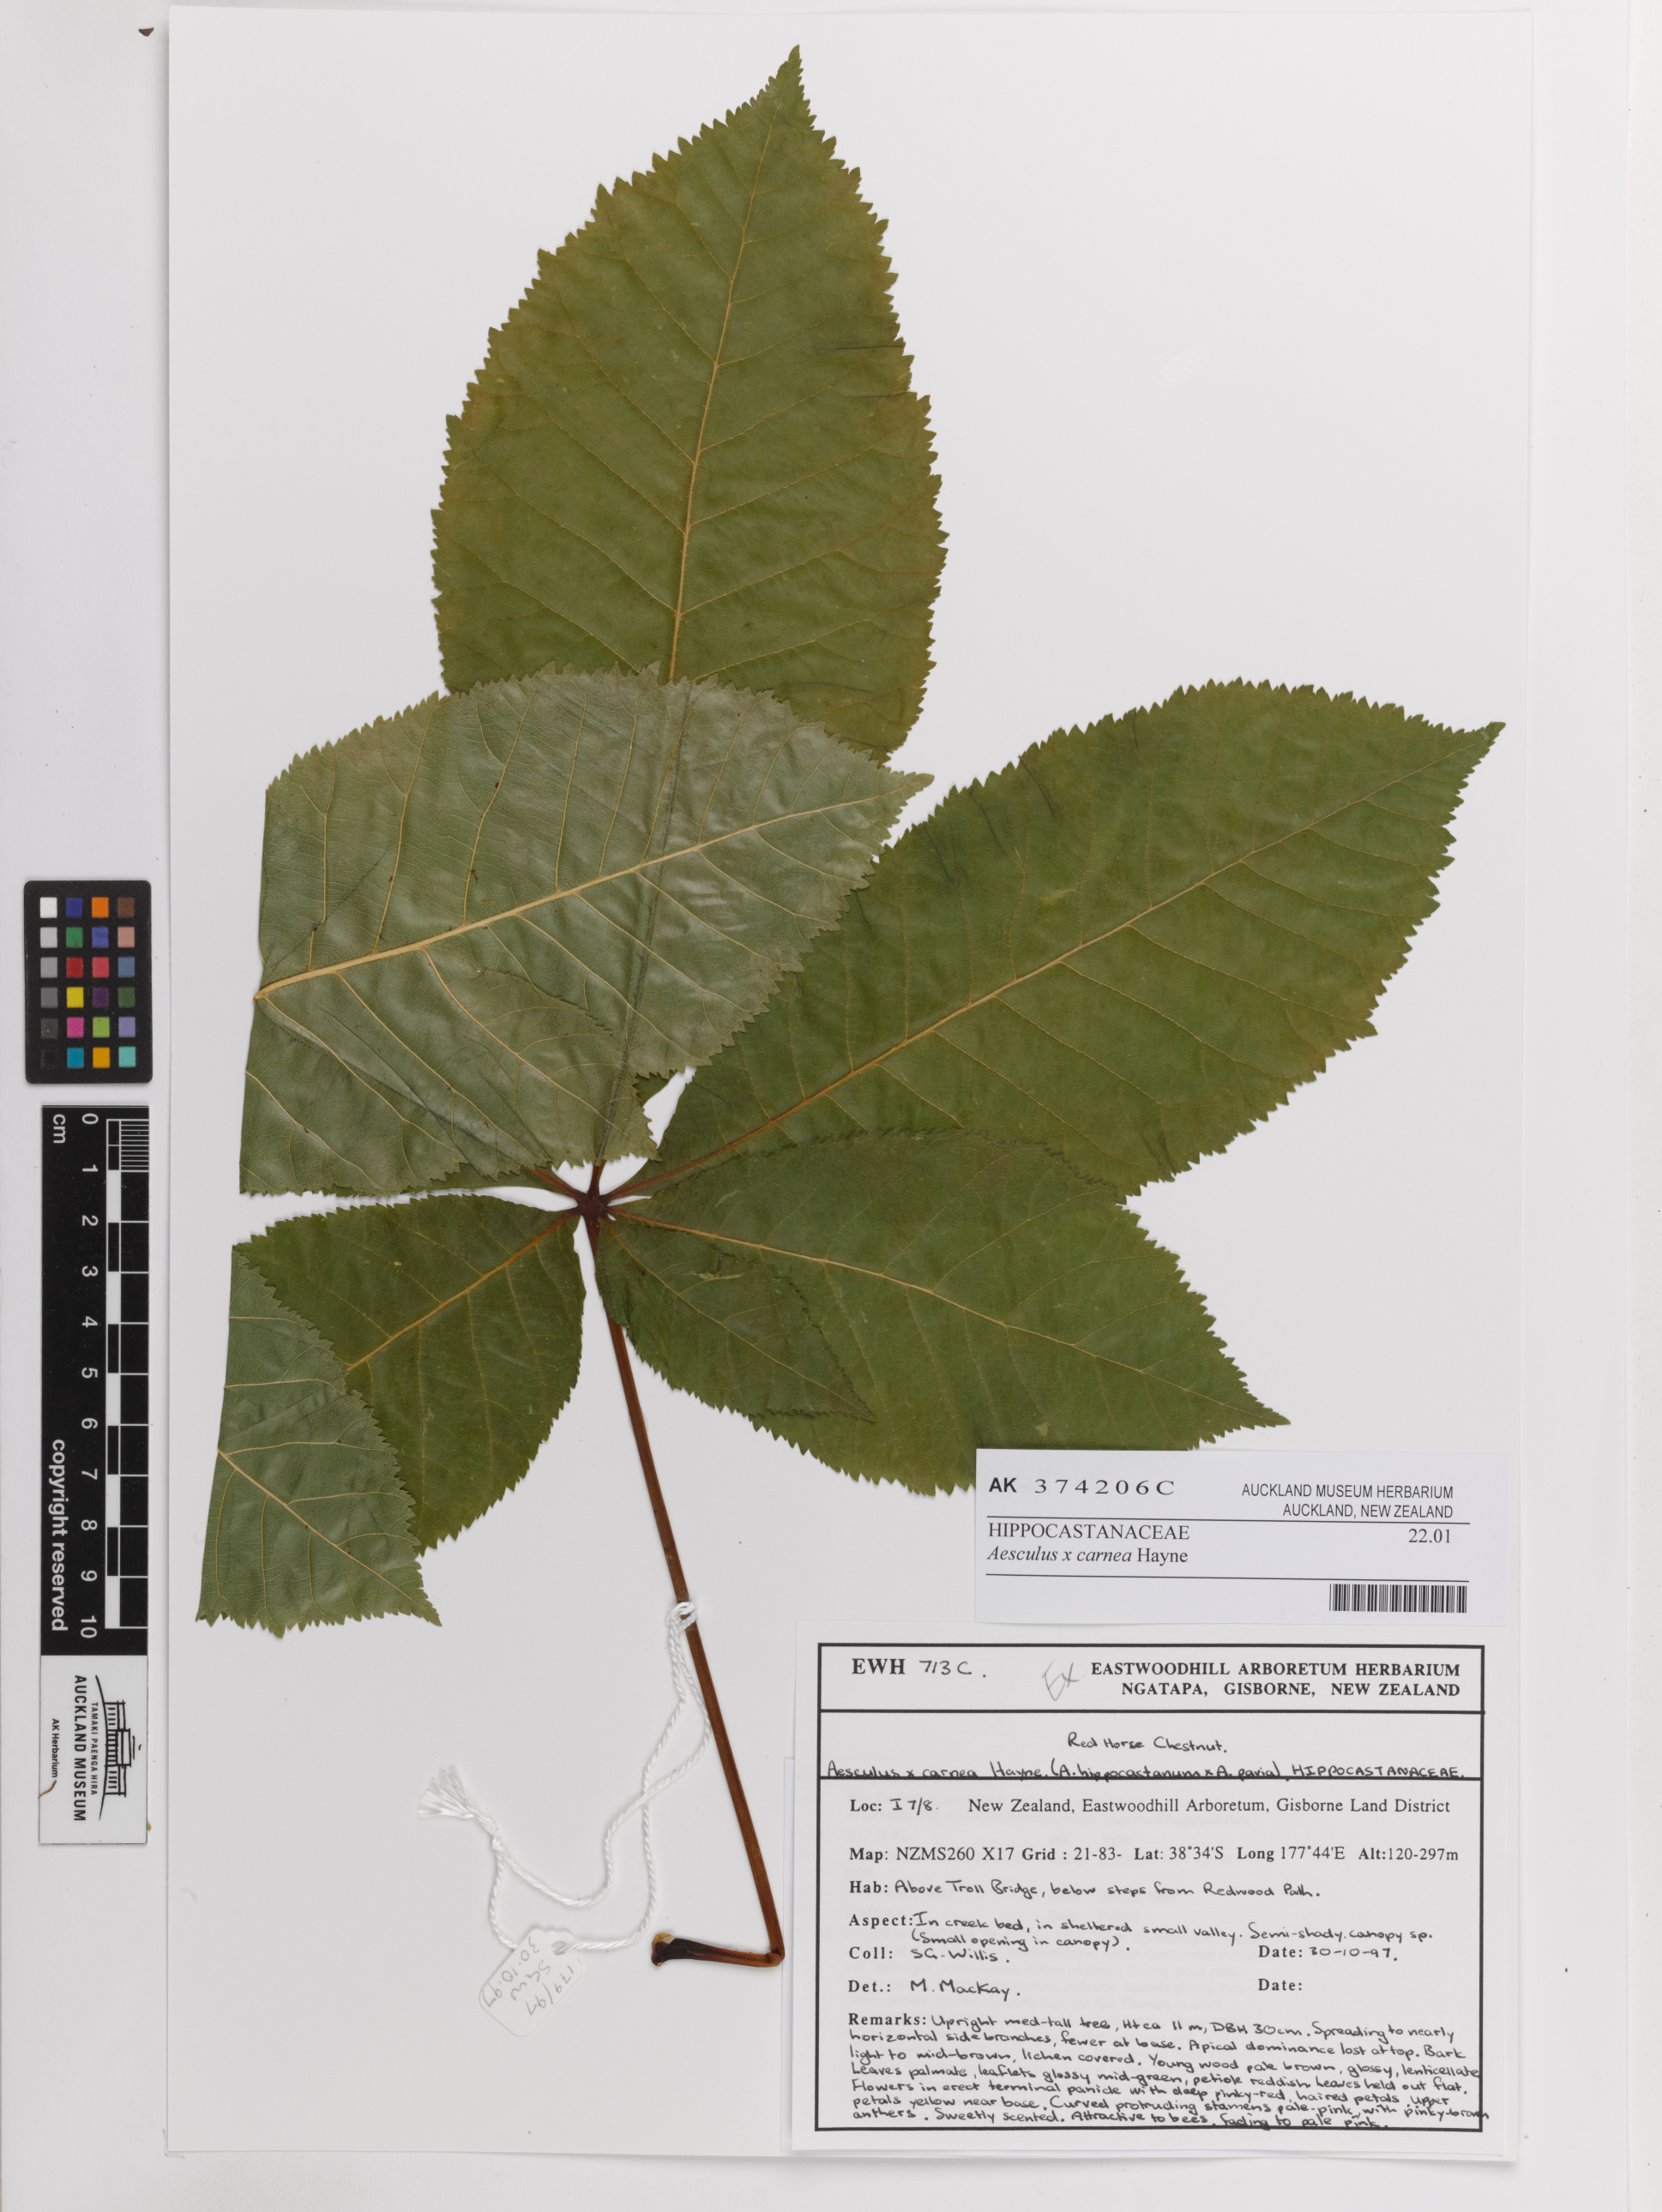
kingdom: Plantae
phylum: Tracheophyta
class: Magnoliopsida
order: Sapindales
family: Sapindaceae
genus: Aesculus
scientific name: Aesculus carnea
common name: Red horse-chestnut
